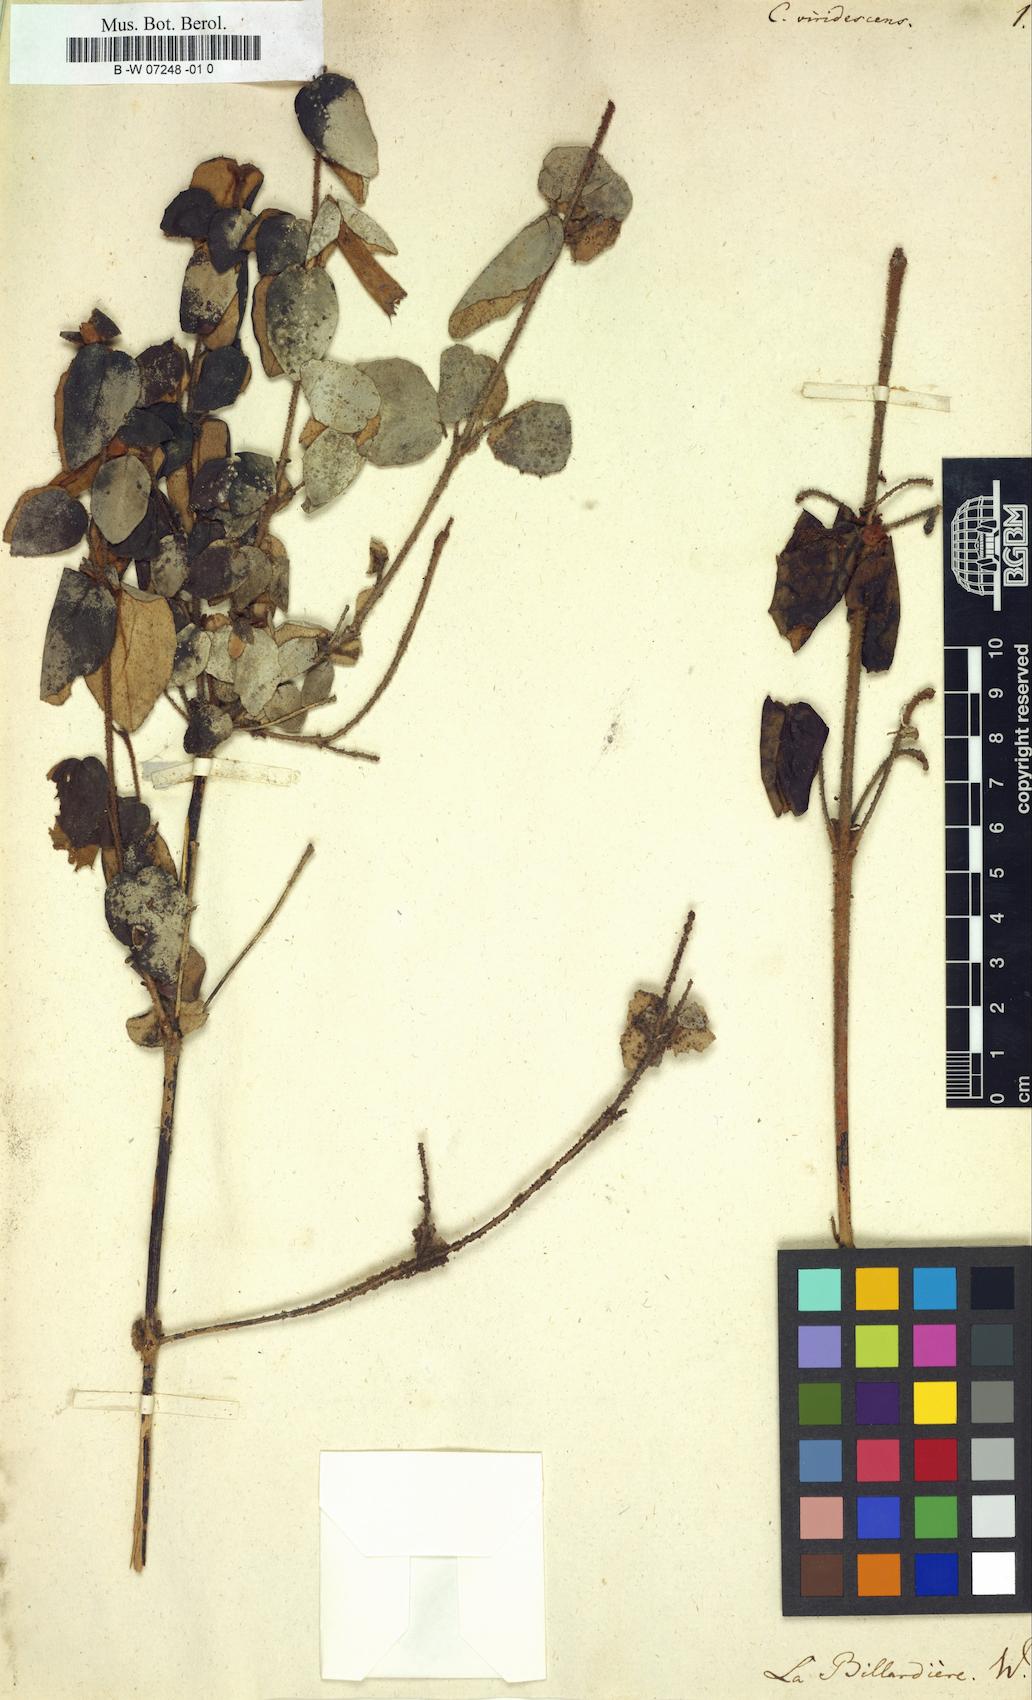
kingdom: Plantae
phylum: Tracheophyta
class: Magnoliopsida
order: Sapindales
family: Rutaceae
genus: Correa
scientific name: Correa
